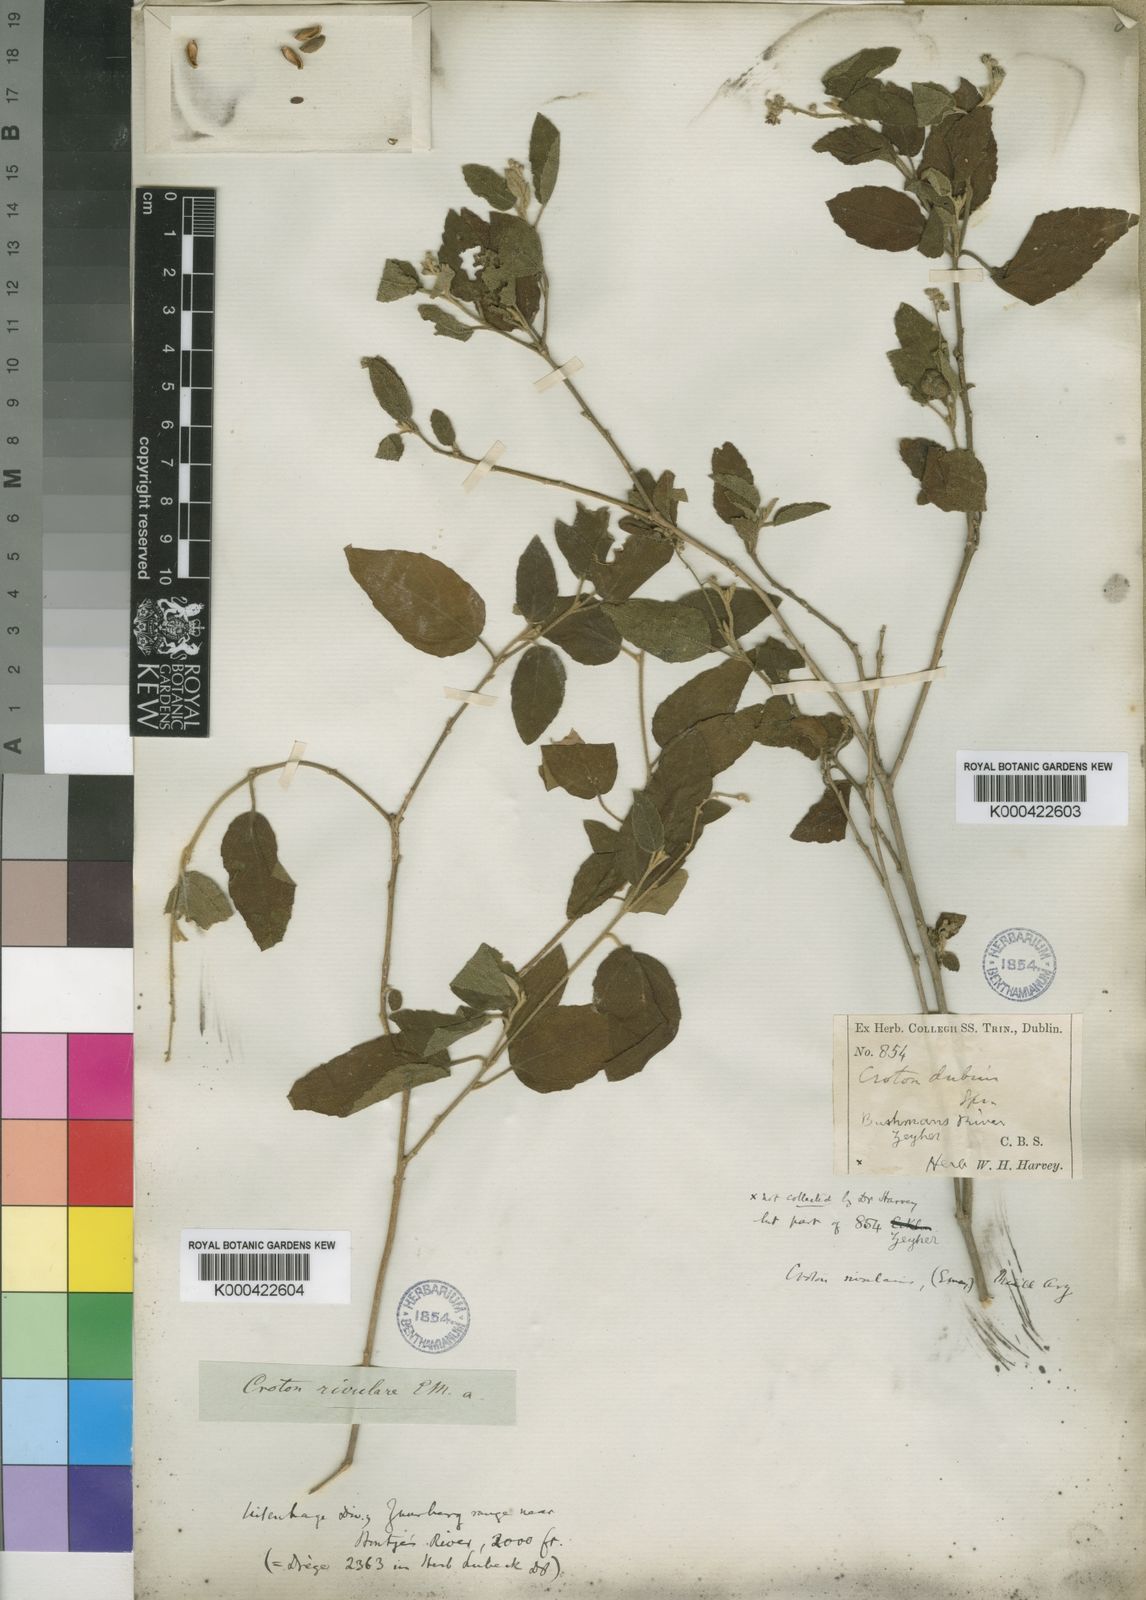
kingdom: Plantae
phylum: Tracheophyta
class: Magnoliopsida
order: Malpighiales
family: Euphorbiaceae
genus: Croton
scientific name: Croton
